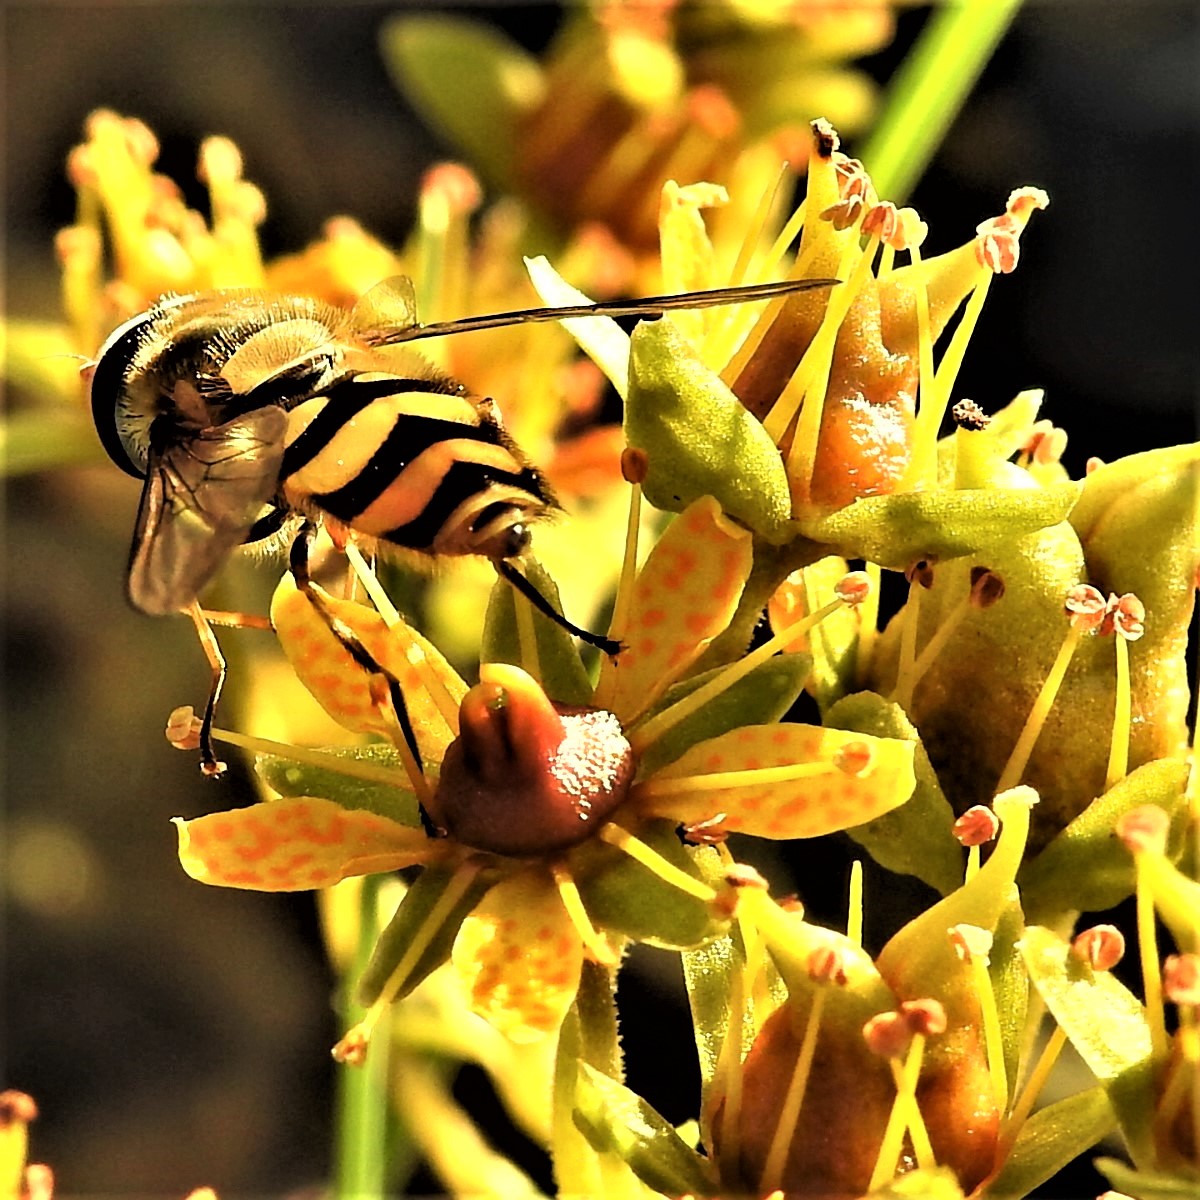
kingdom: Plantae
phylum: Tracheophyta
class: Magnoliopsida
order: Saxifragales
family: Saxifragaceae
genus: Saxifraga
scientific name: Saxifraga aizoides
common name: Yellow mountain saxifrage
